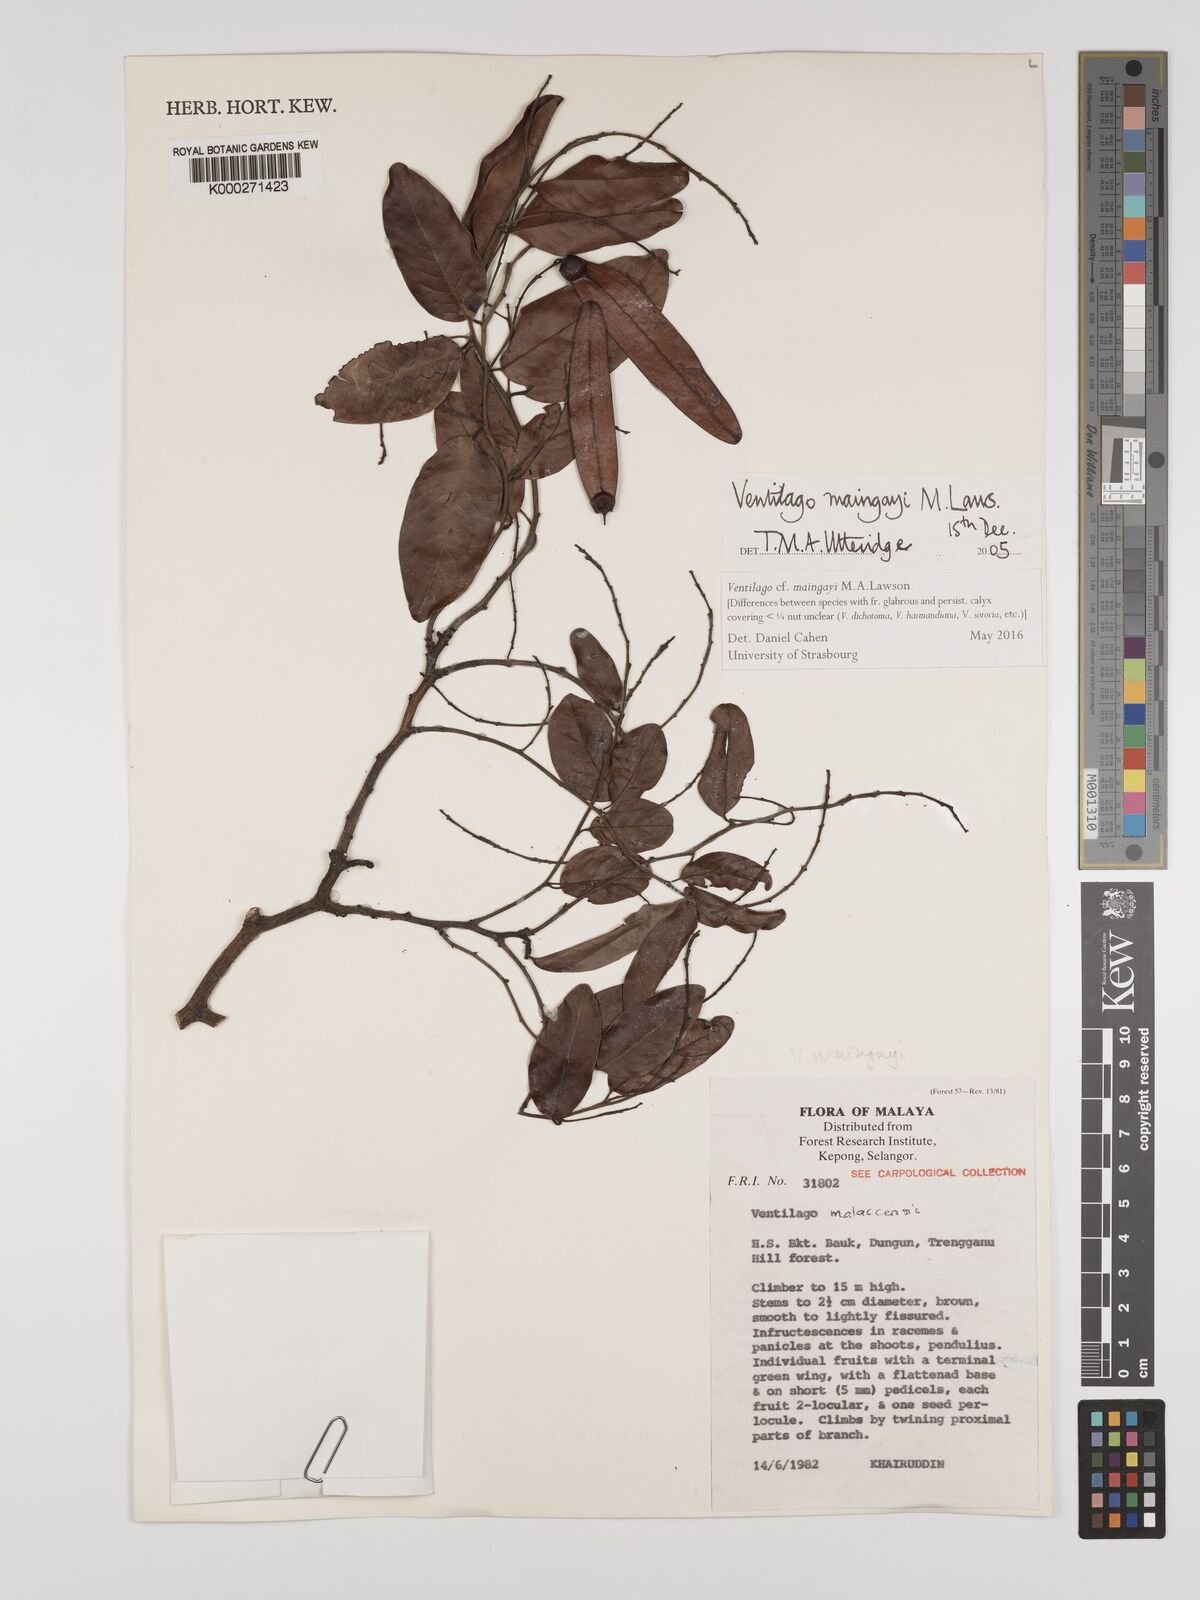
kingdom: Plantae
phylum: Tracheophyta
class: Magnoliopsida
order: Rosales
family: Rhamnaceae
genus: Ventilago
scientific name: Ventilago maingayi
